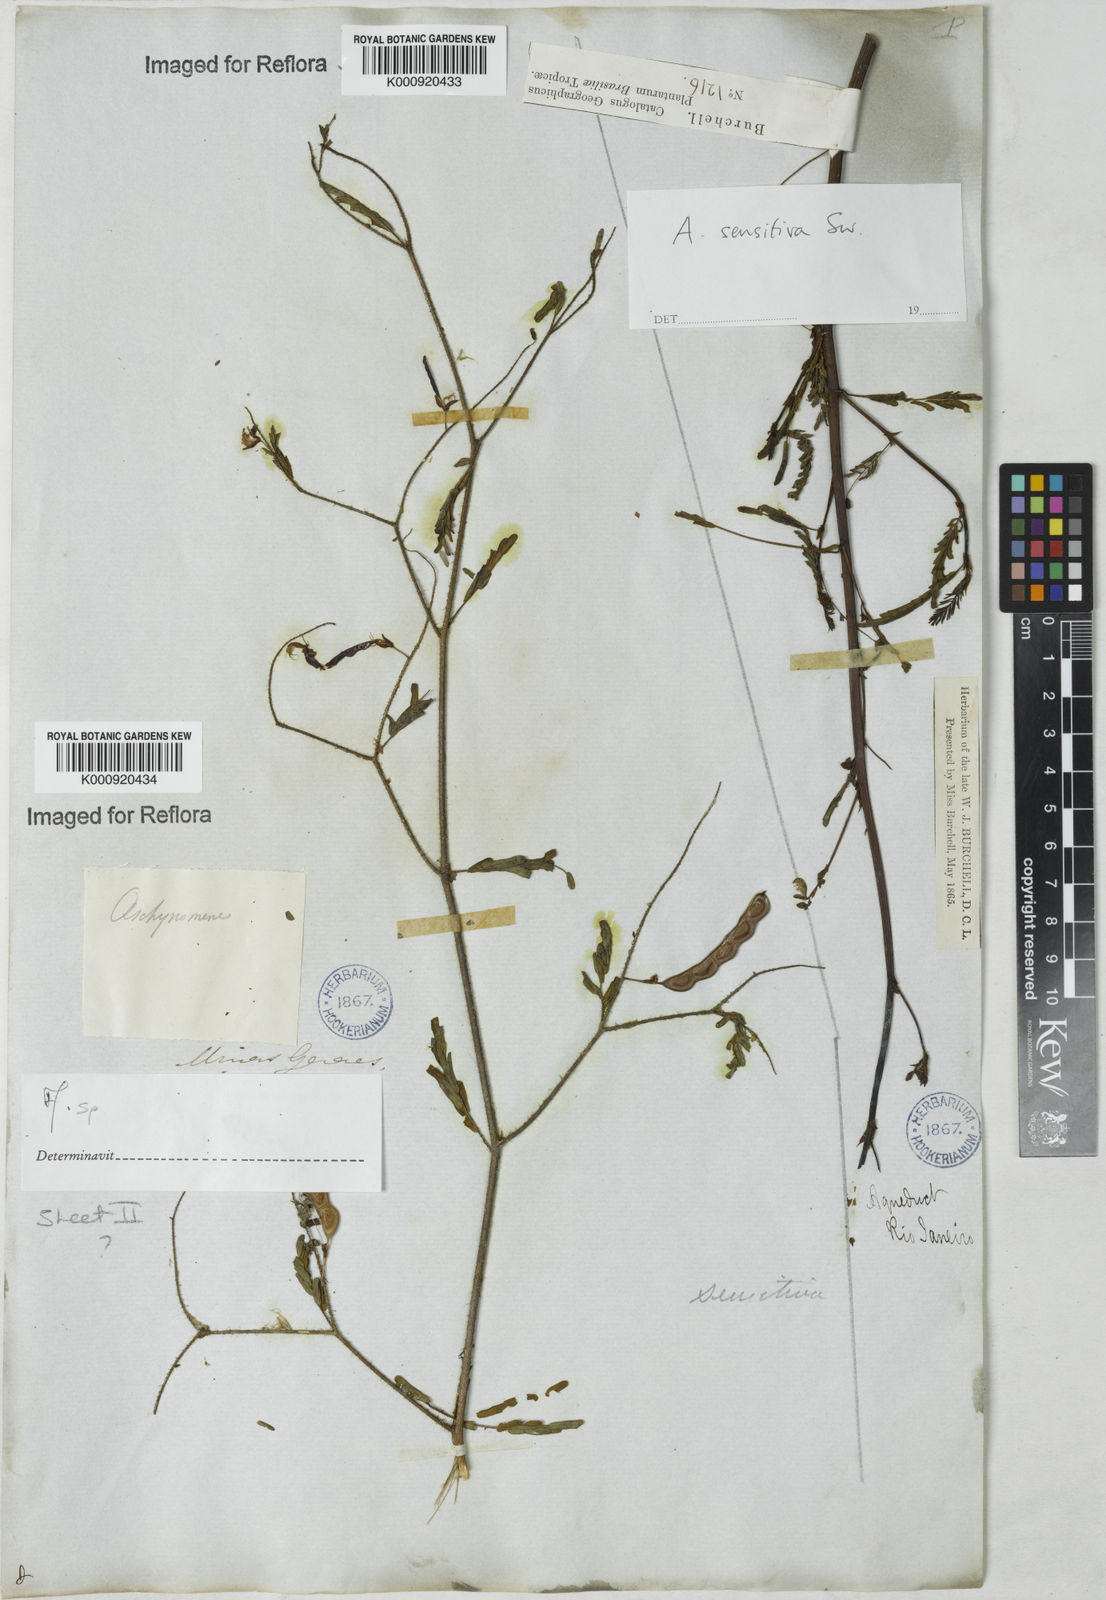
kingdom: Plantae
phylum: Tracheophyta
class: Magnoliopsida
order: Fabales
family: Fabaceae
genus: Aeschynomene
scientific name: Aeschynomene
